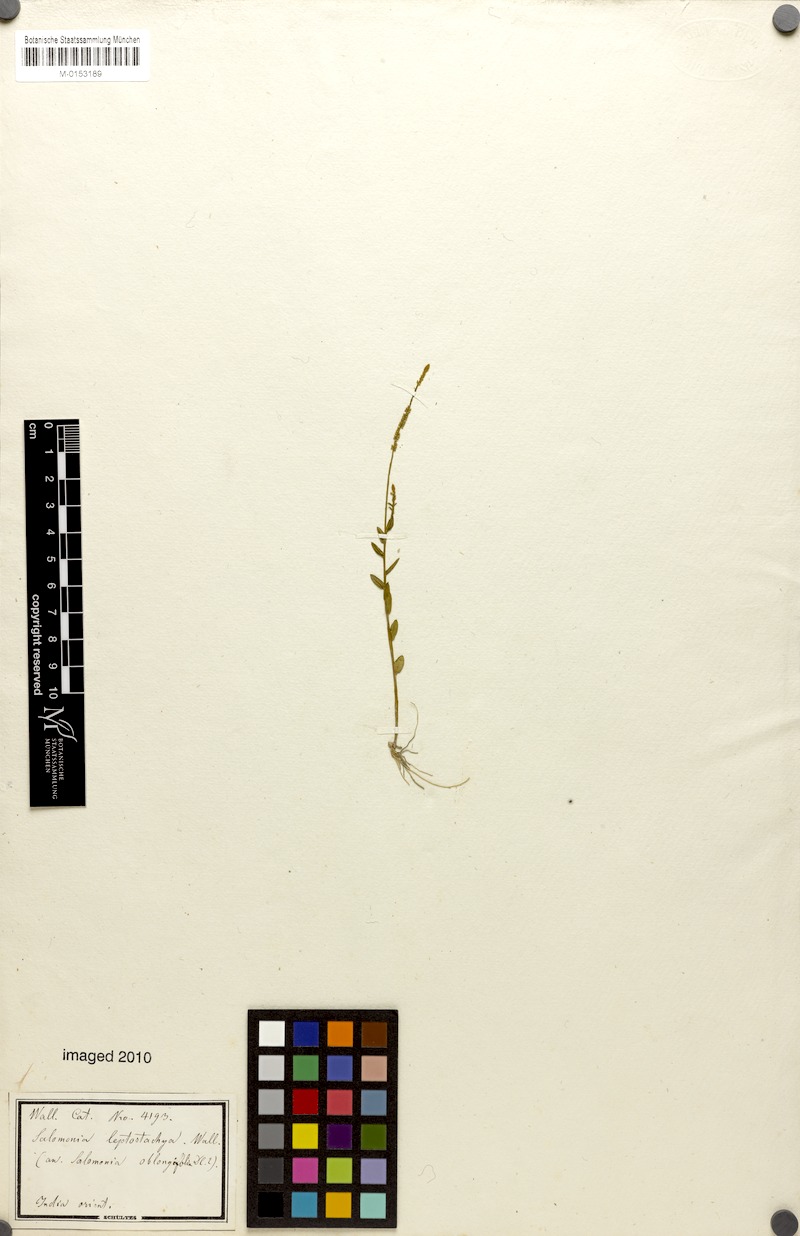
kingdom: Plantae
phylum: Tracheophyta
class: Magnoliopsida
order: Fabales
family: Polygalaceae
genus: Salomonia
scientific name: Salomonia ciliata
